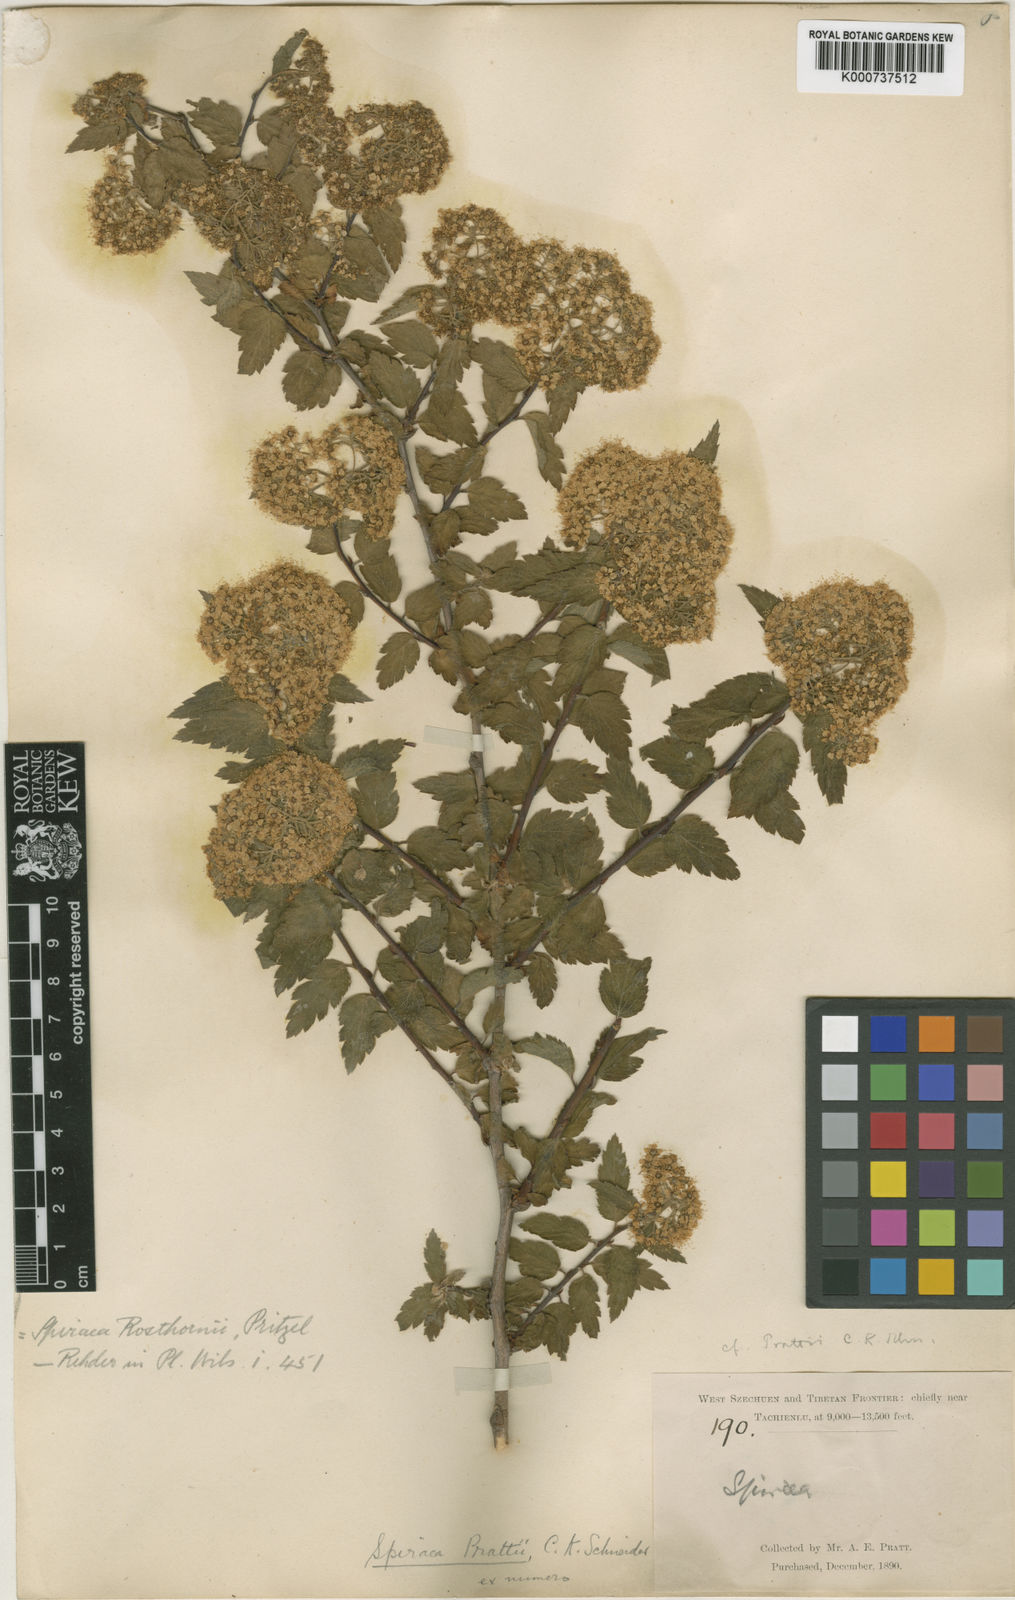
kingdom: Plantae
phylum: Tracheophyta
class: Magnoliopsida
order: Rosales
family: Rosaceae
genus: Spiraea
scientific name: Spiraea rosthornii
